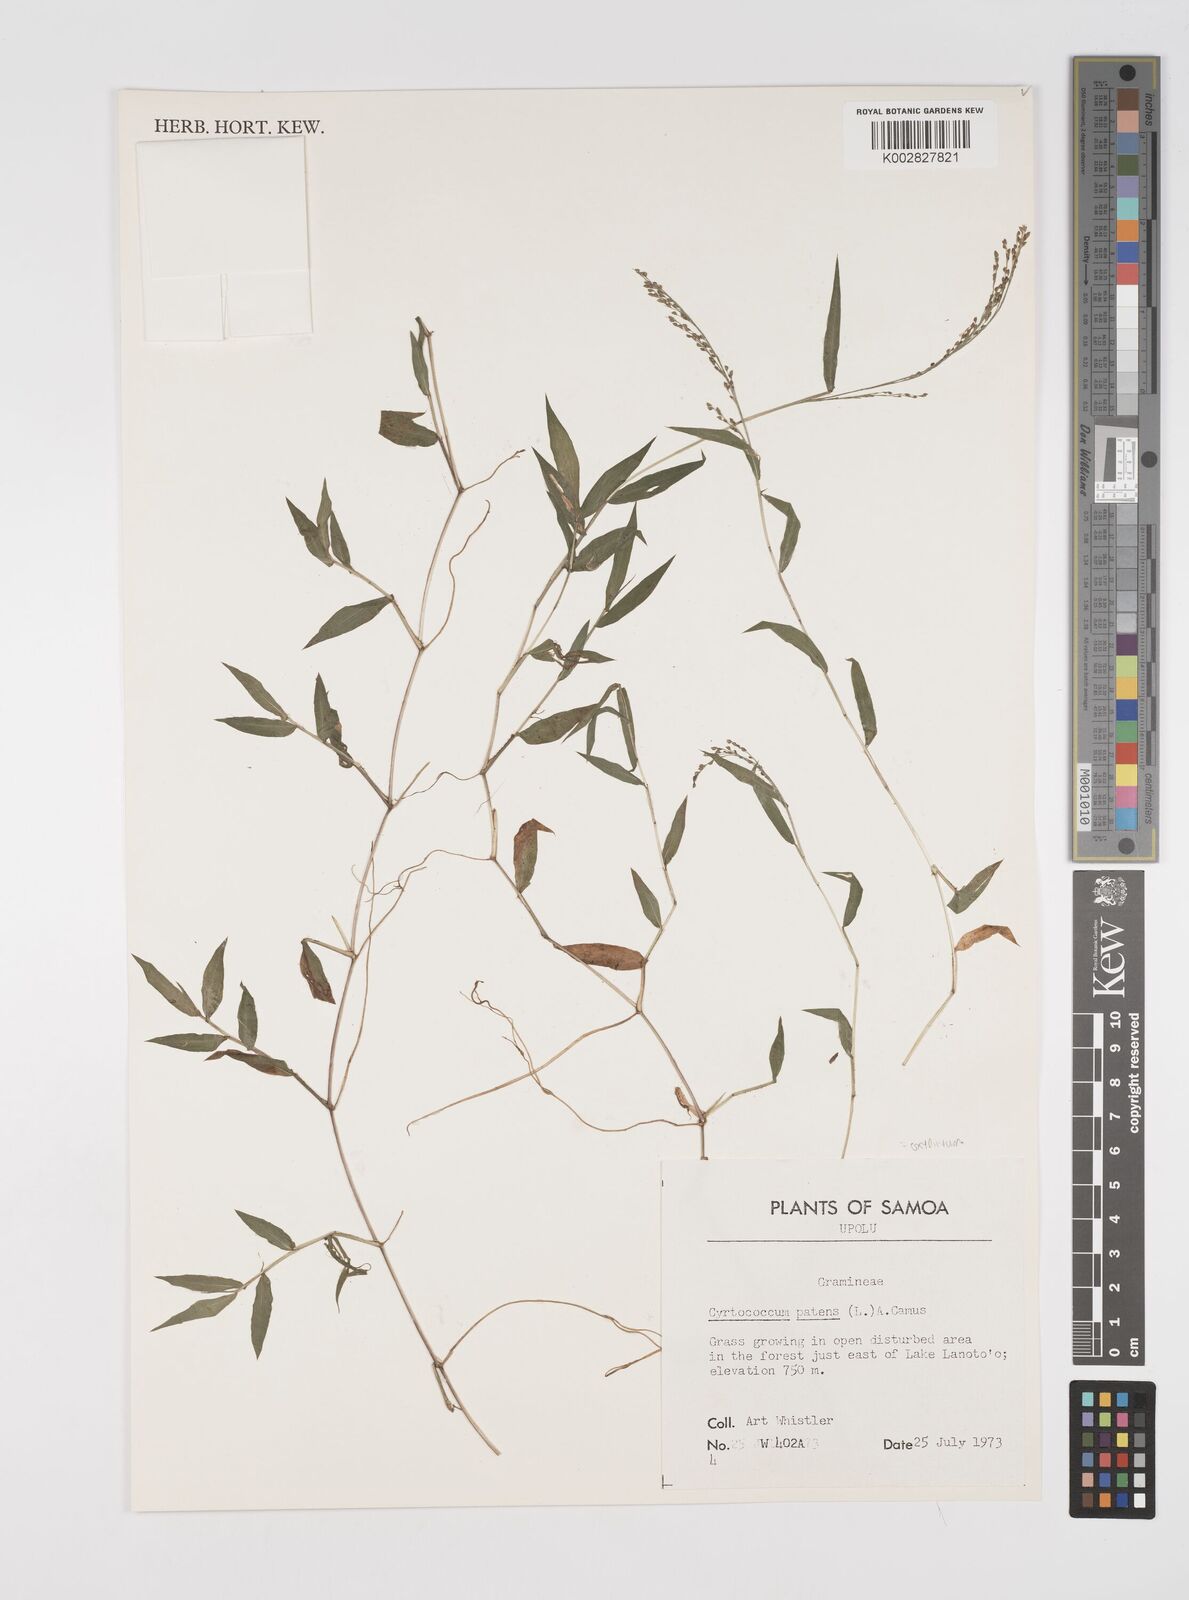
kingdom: Plantae
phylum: Tracheophyta
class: Liliopsida
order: Poales
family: Poaceae
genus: Cyrtococcum
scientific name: Cyrtococcum patens
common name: Broad-leaved bowgrass
